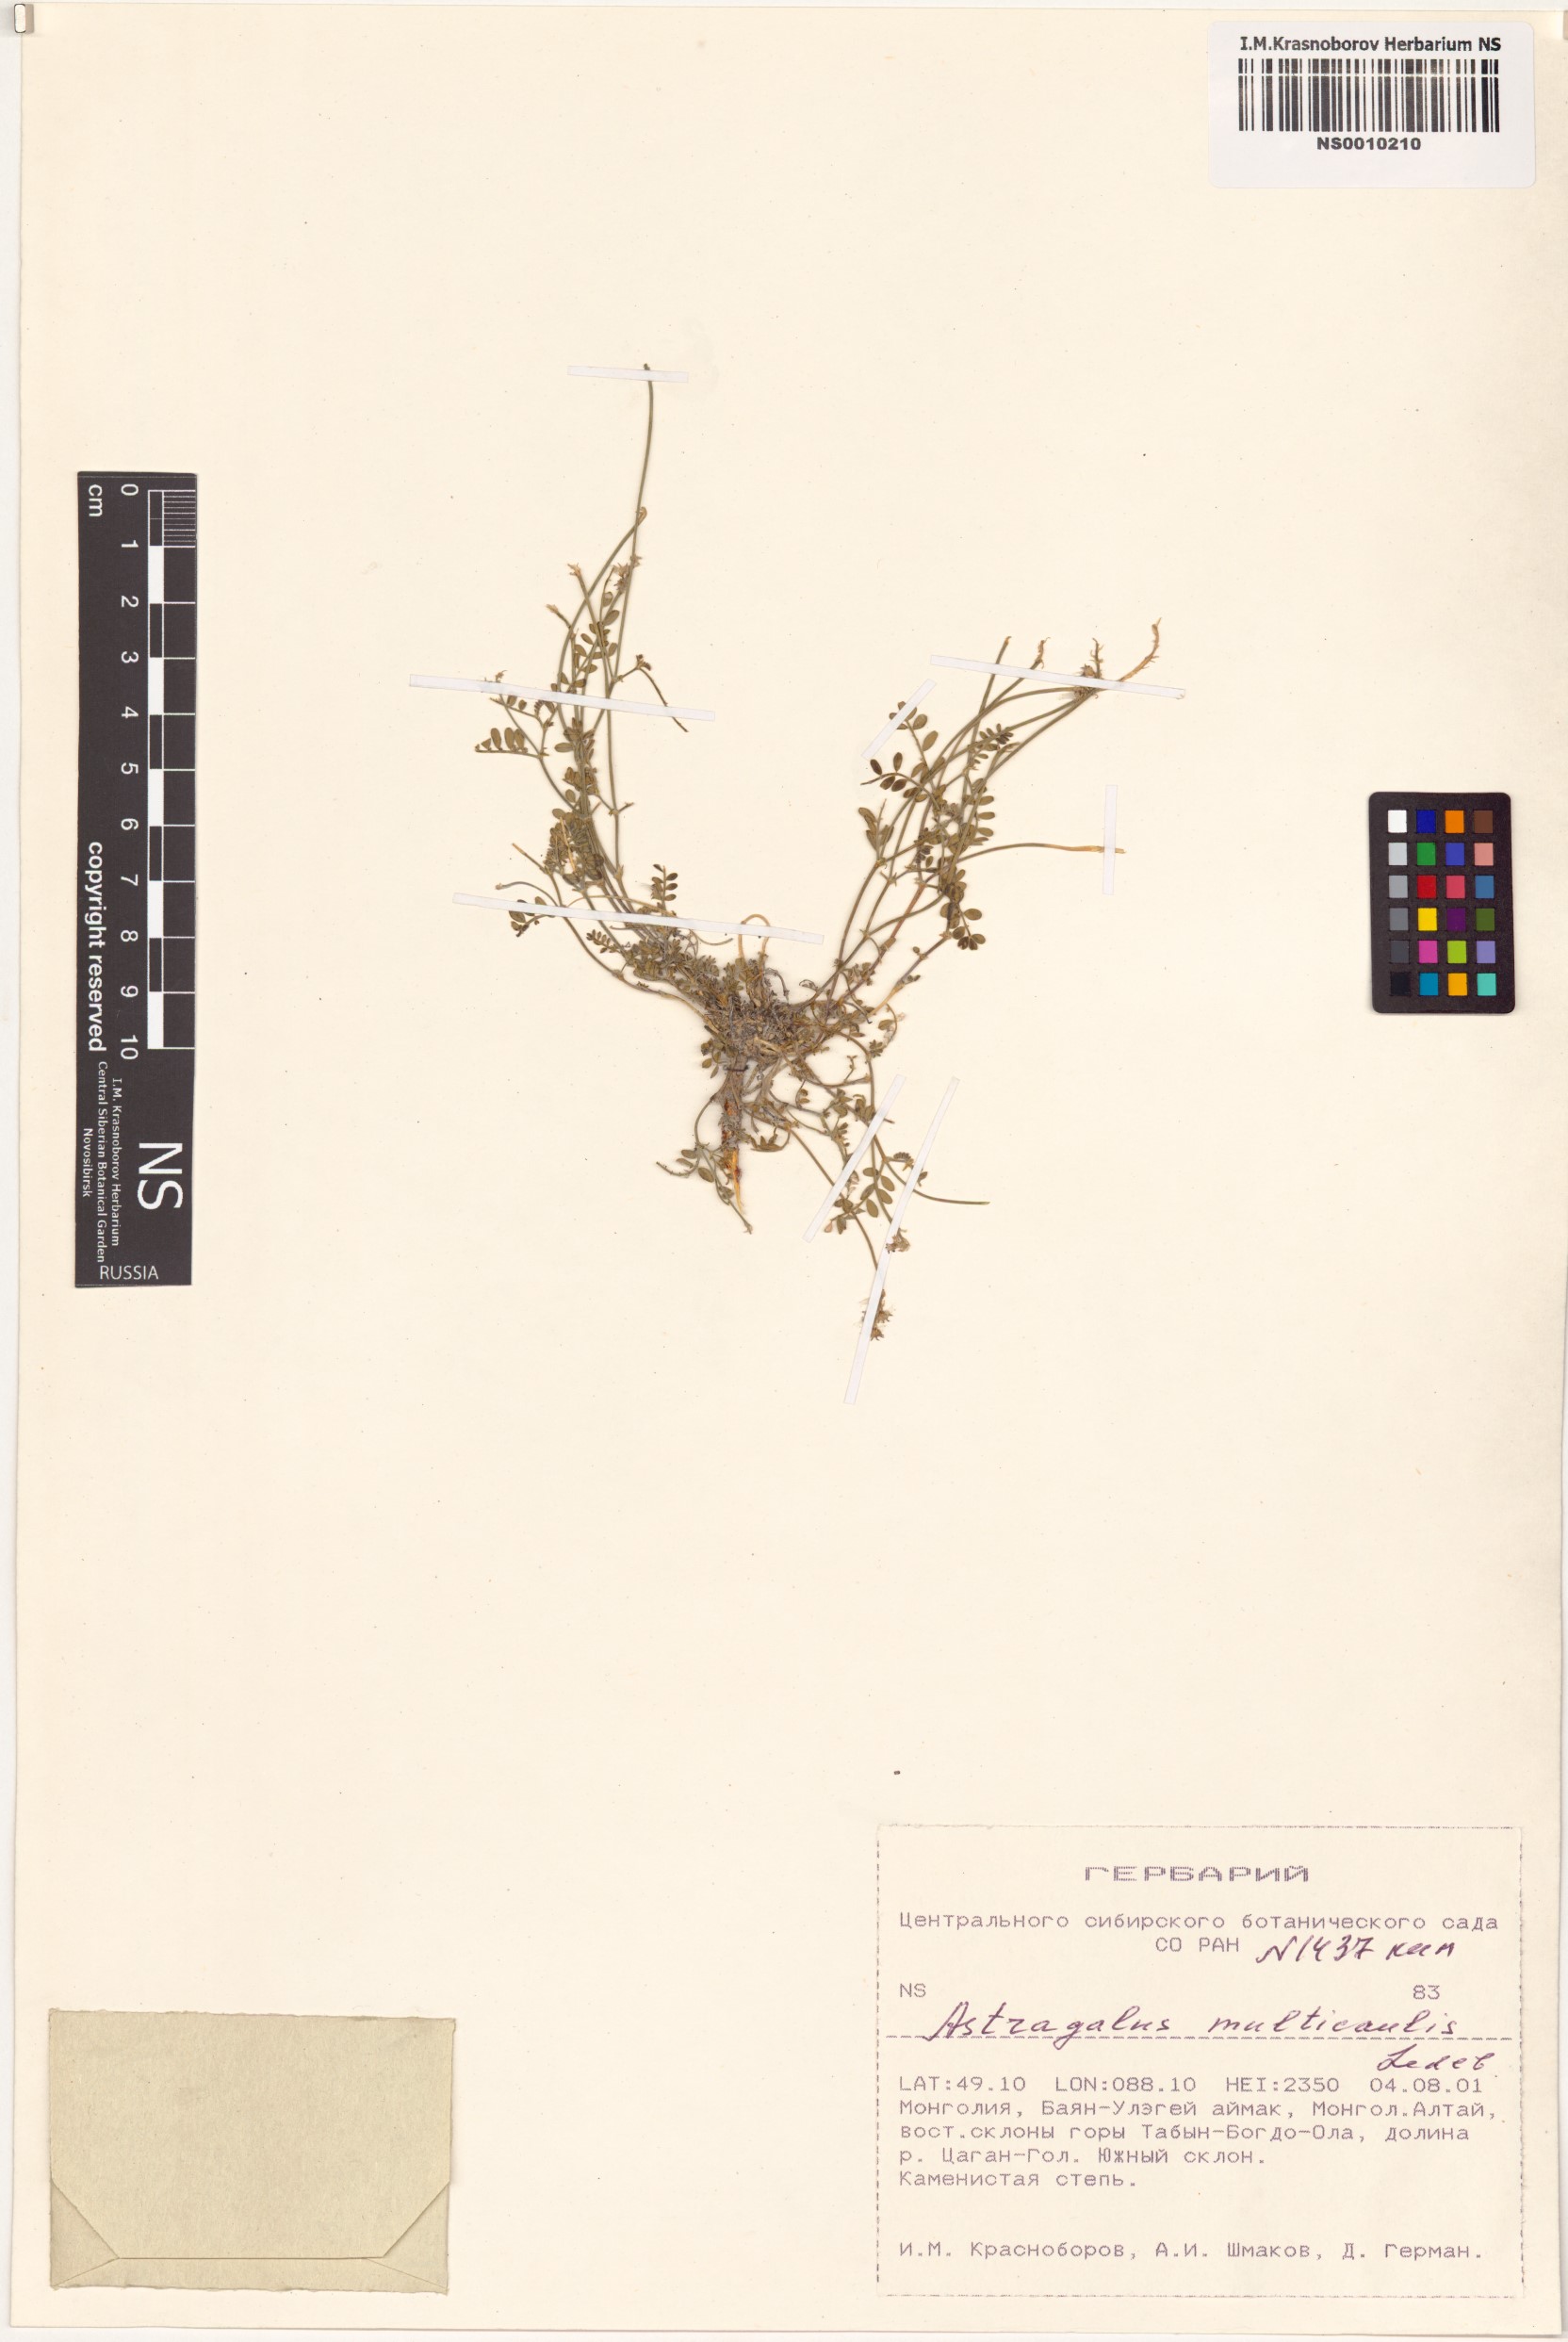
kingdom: Plantae
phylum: Tracheophyta
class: Magnoliopsida
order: Fabales
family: Fabaceae
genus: Astragalus
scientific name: Astragalus leptostachys
